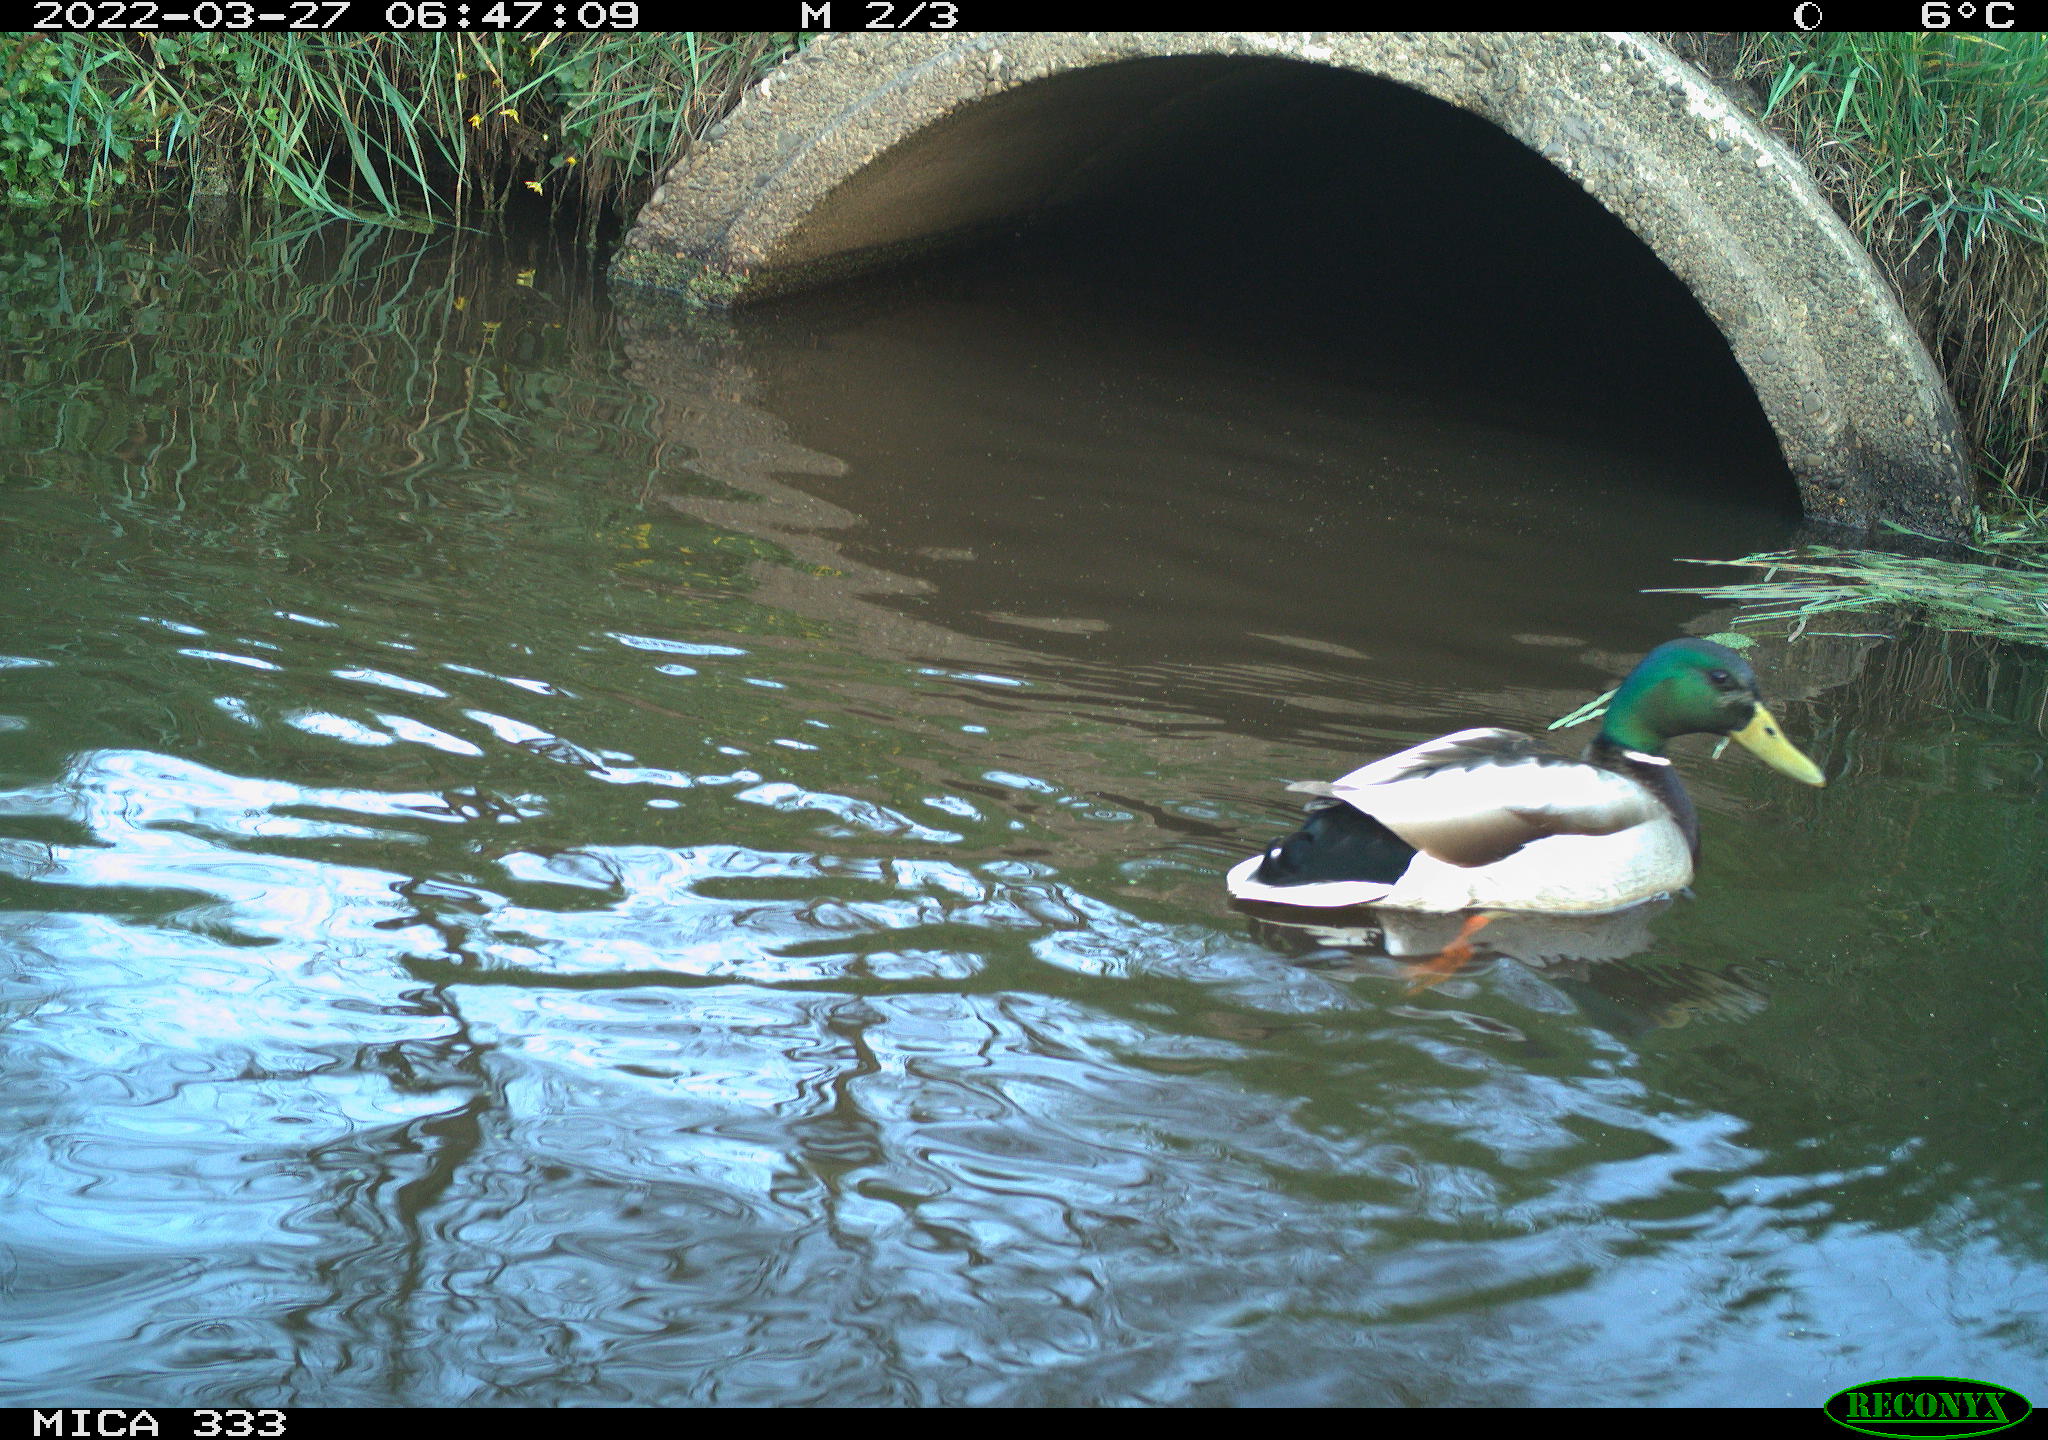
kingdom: Animalia
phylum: Chordata
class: Aves
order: Anseriformes
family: Anatidae
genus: Anas
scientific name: Anas platyrhynchos
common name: Mallard
